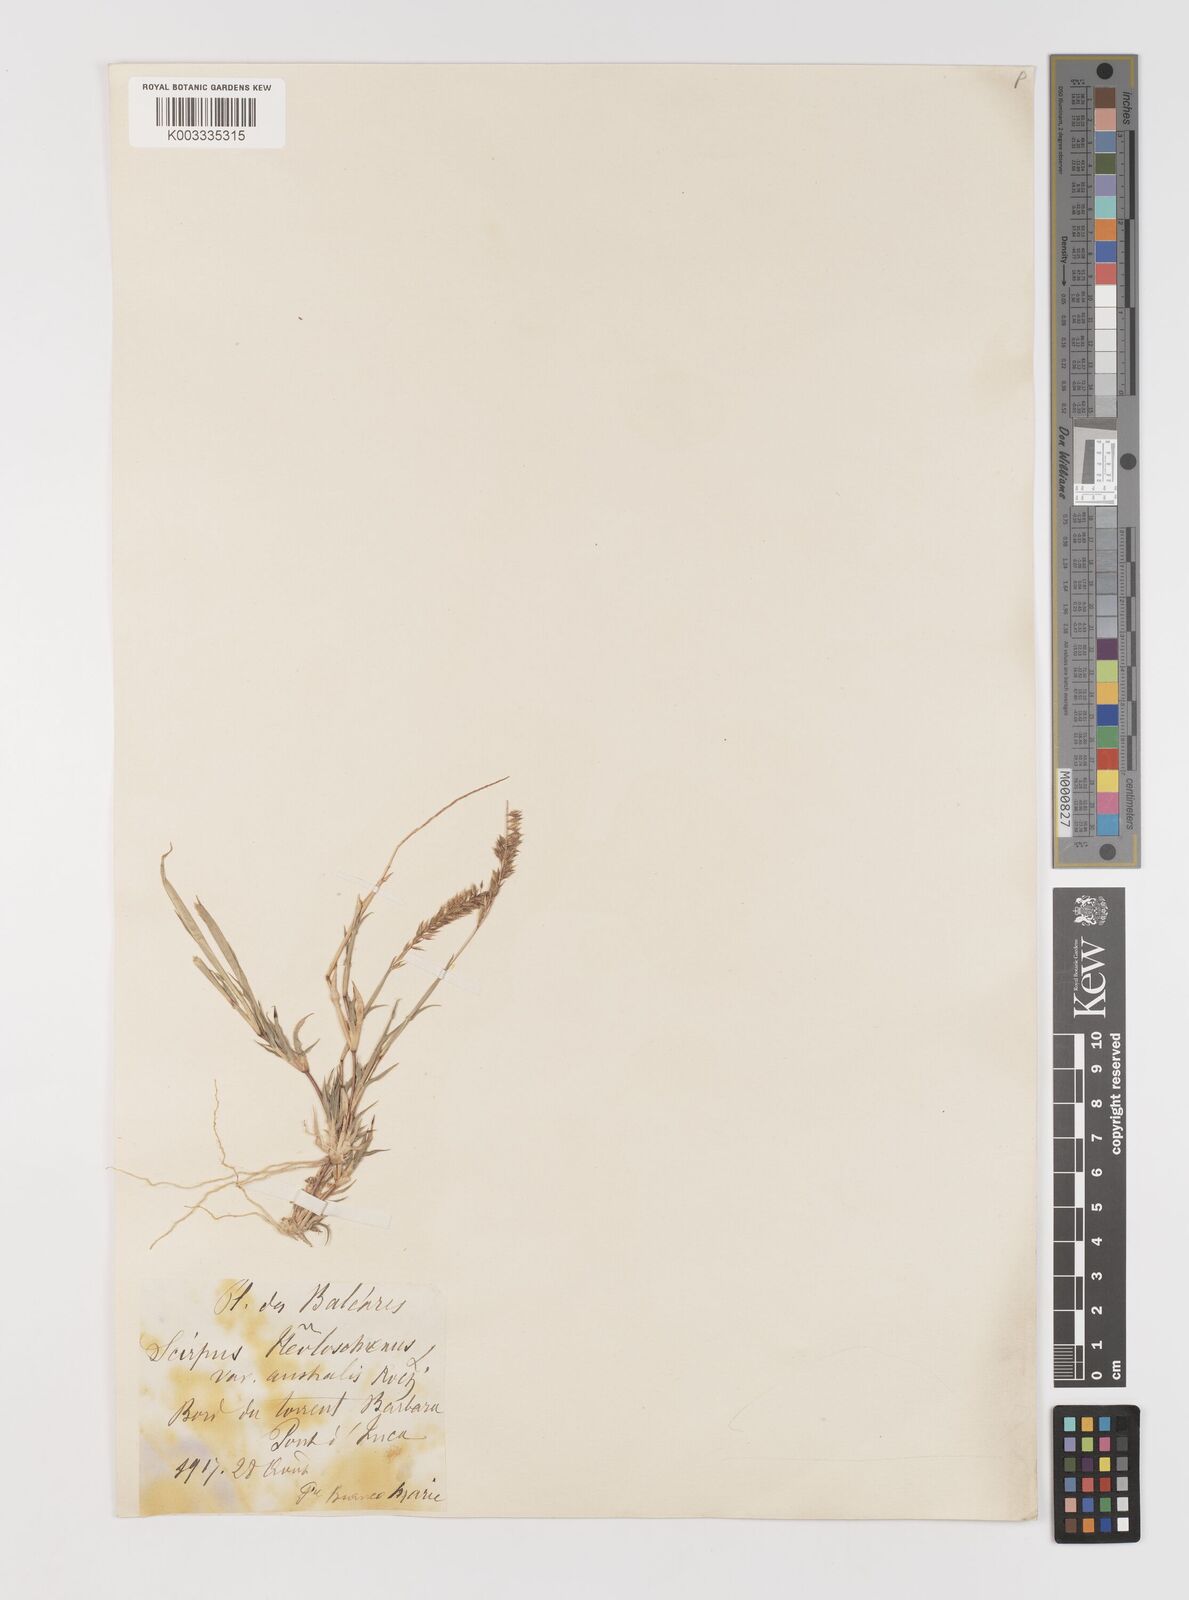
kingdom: Plantae
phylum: Tracheophyta
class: Liliopsida
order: Poales
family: Poaceae
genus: Tragus
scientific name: Tragus racemosus
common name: European bur-grass
